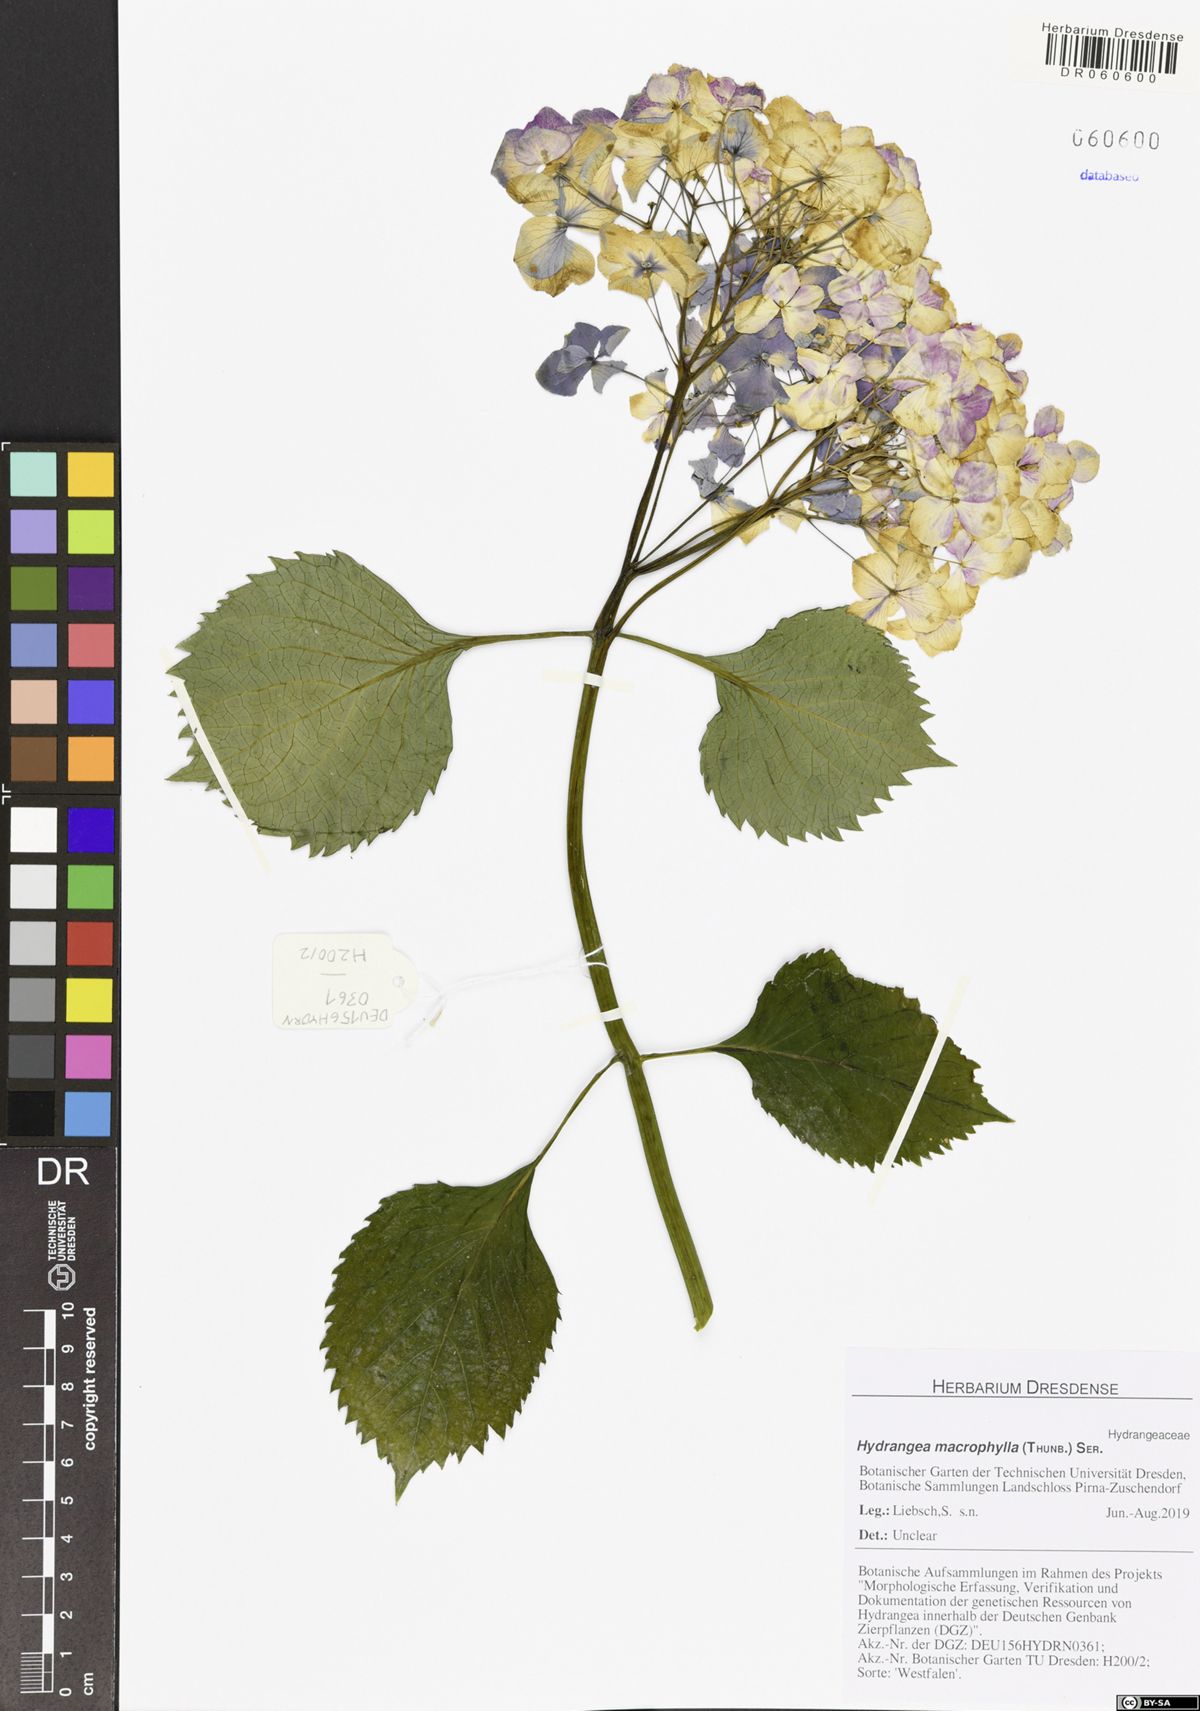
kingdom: Plantae
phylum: Tracheophyta
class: Magnoliopsida
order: Cornales
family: Hydrangeaceae
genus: Hydrangea
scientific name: Hydrangea macrophylla
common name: Hydrangea
